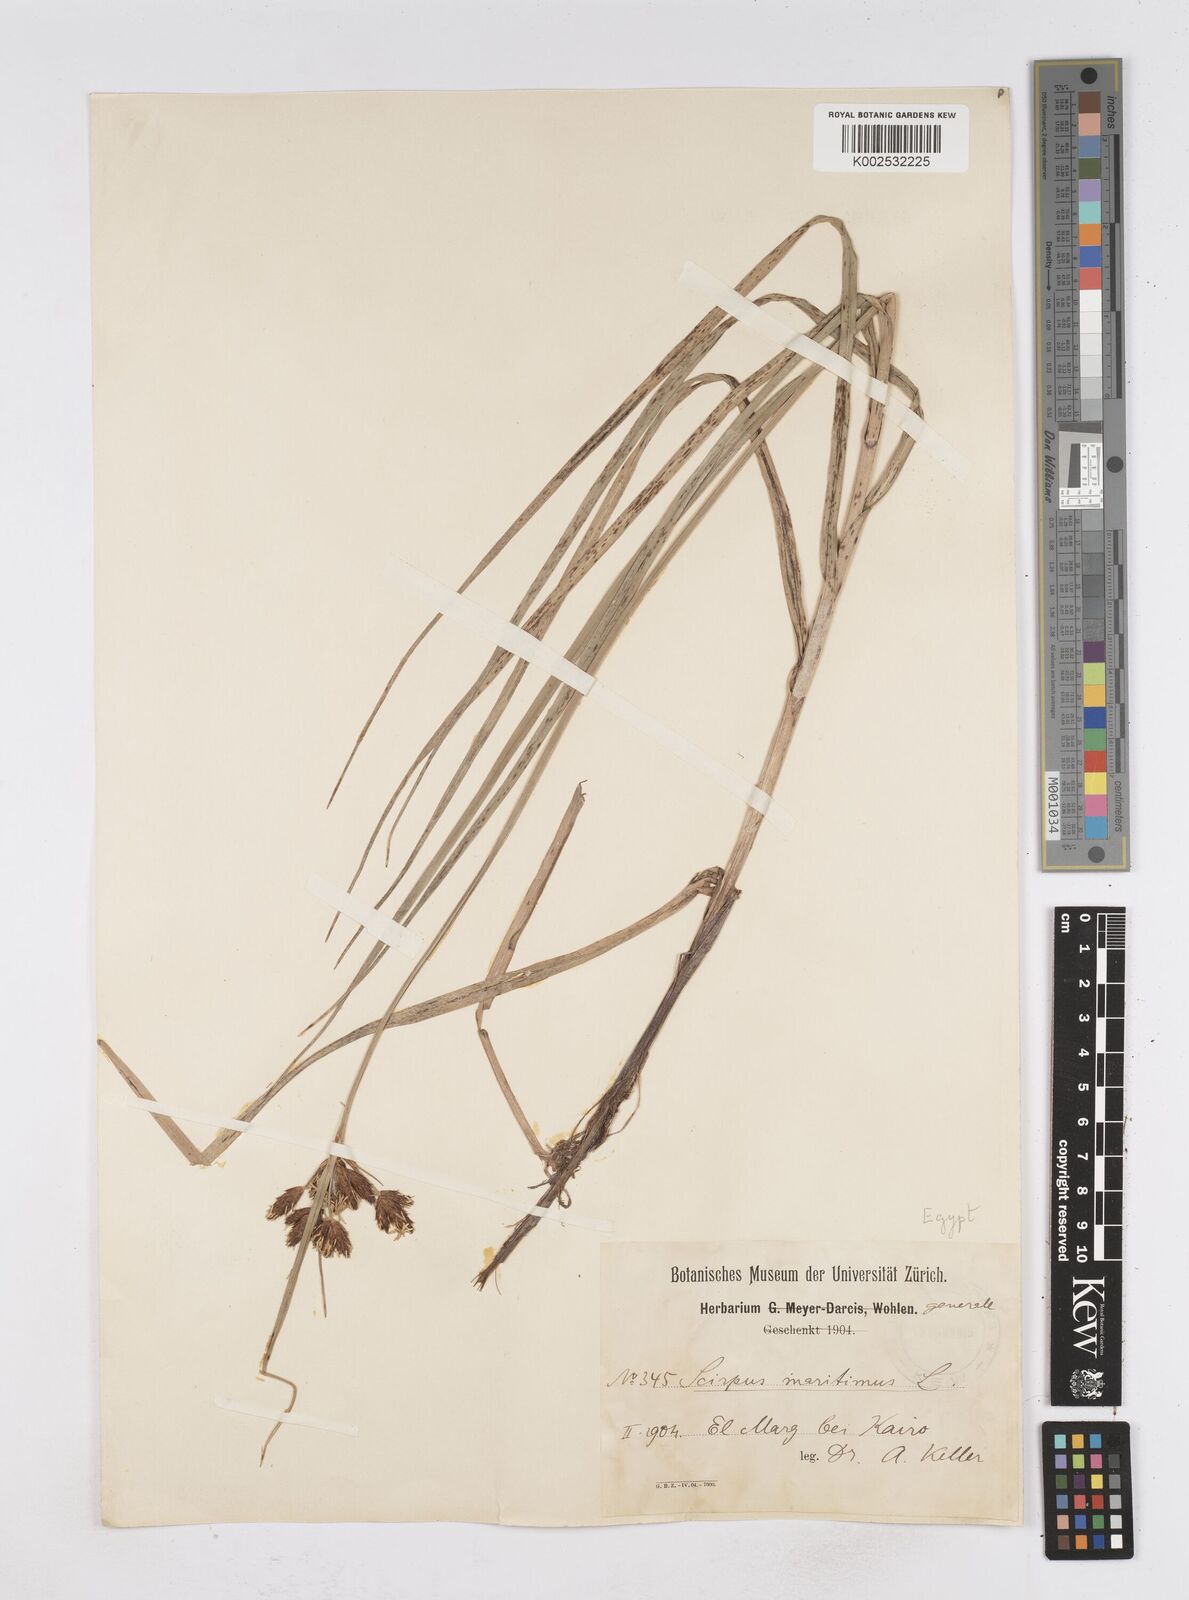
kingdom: Plantae
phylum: Tracheophyta
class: Liliopsida
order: Poales
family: Cyperaceae
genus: Bolboschoenus
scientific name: Bolboschoenus maritimus
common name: Sea club-rush
